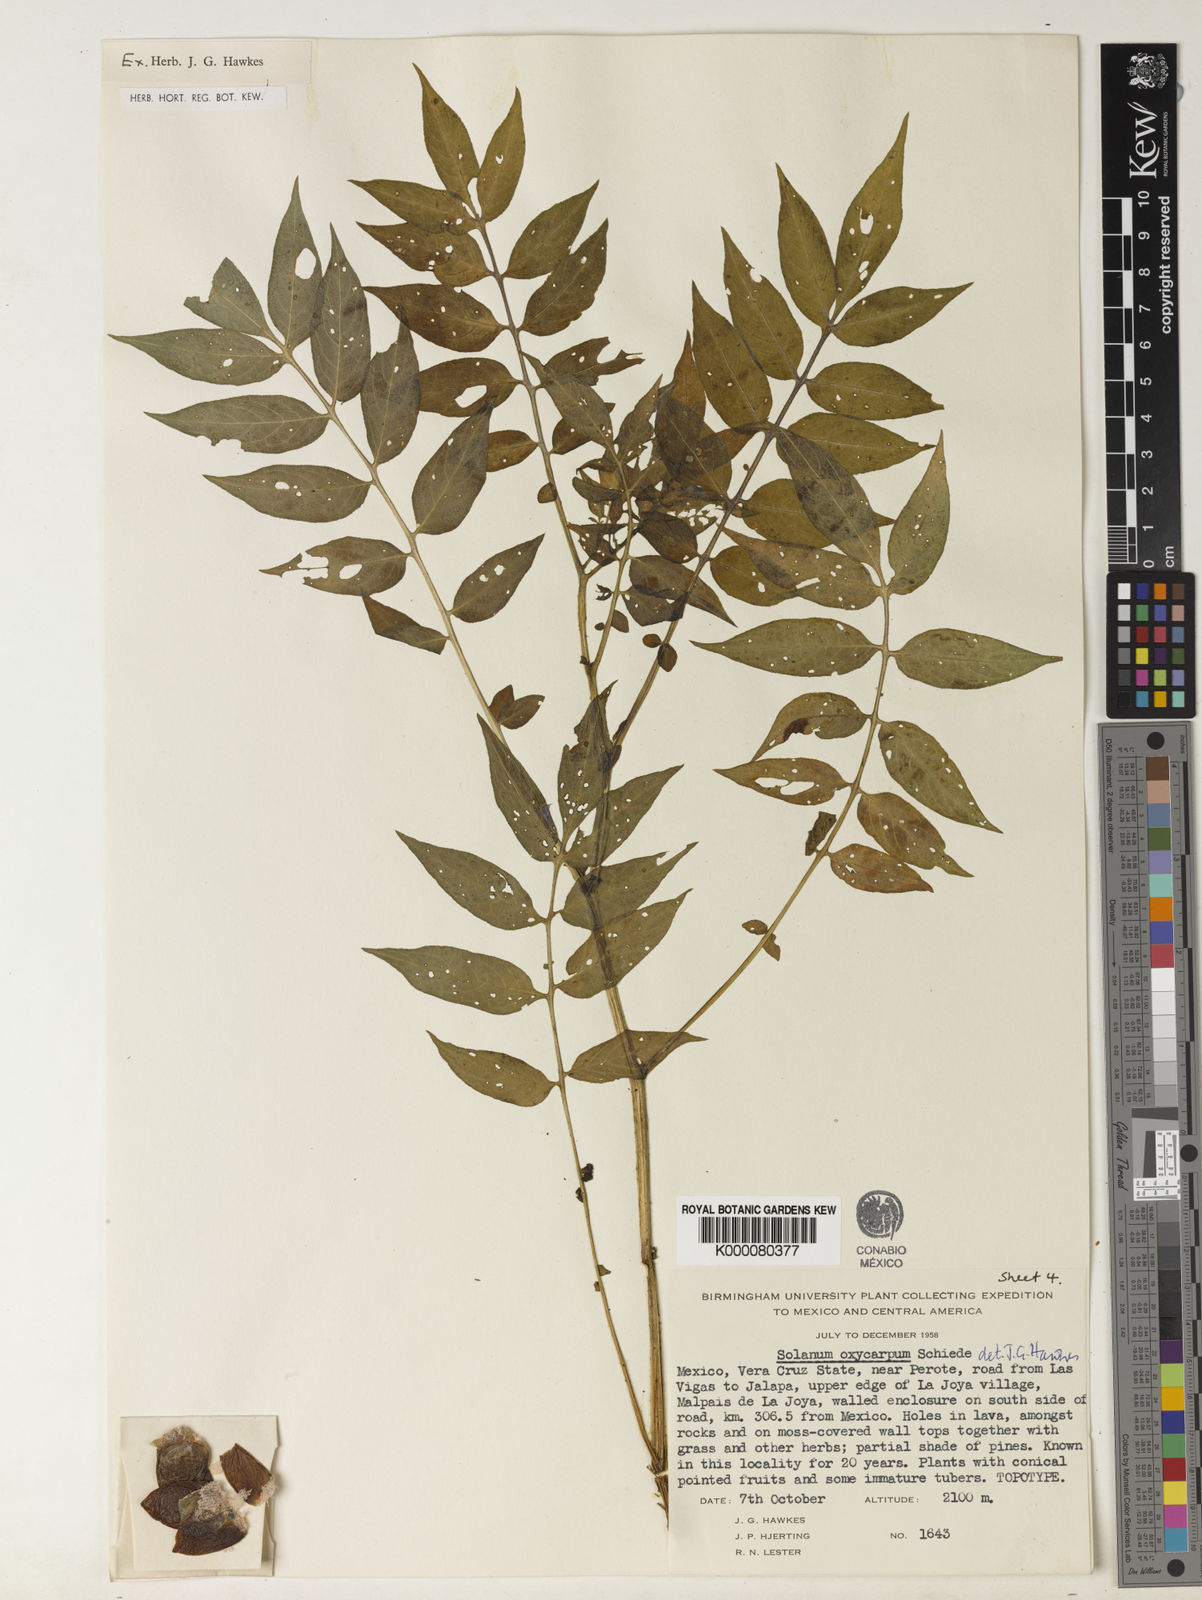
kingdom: Plantae
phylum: Tracheophyta
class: Magnoliopsida
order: Solanales
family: Solanaceae
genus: Solanum
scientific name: Solanum oxycarpum
